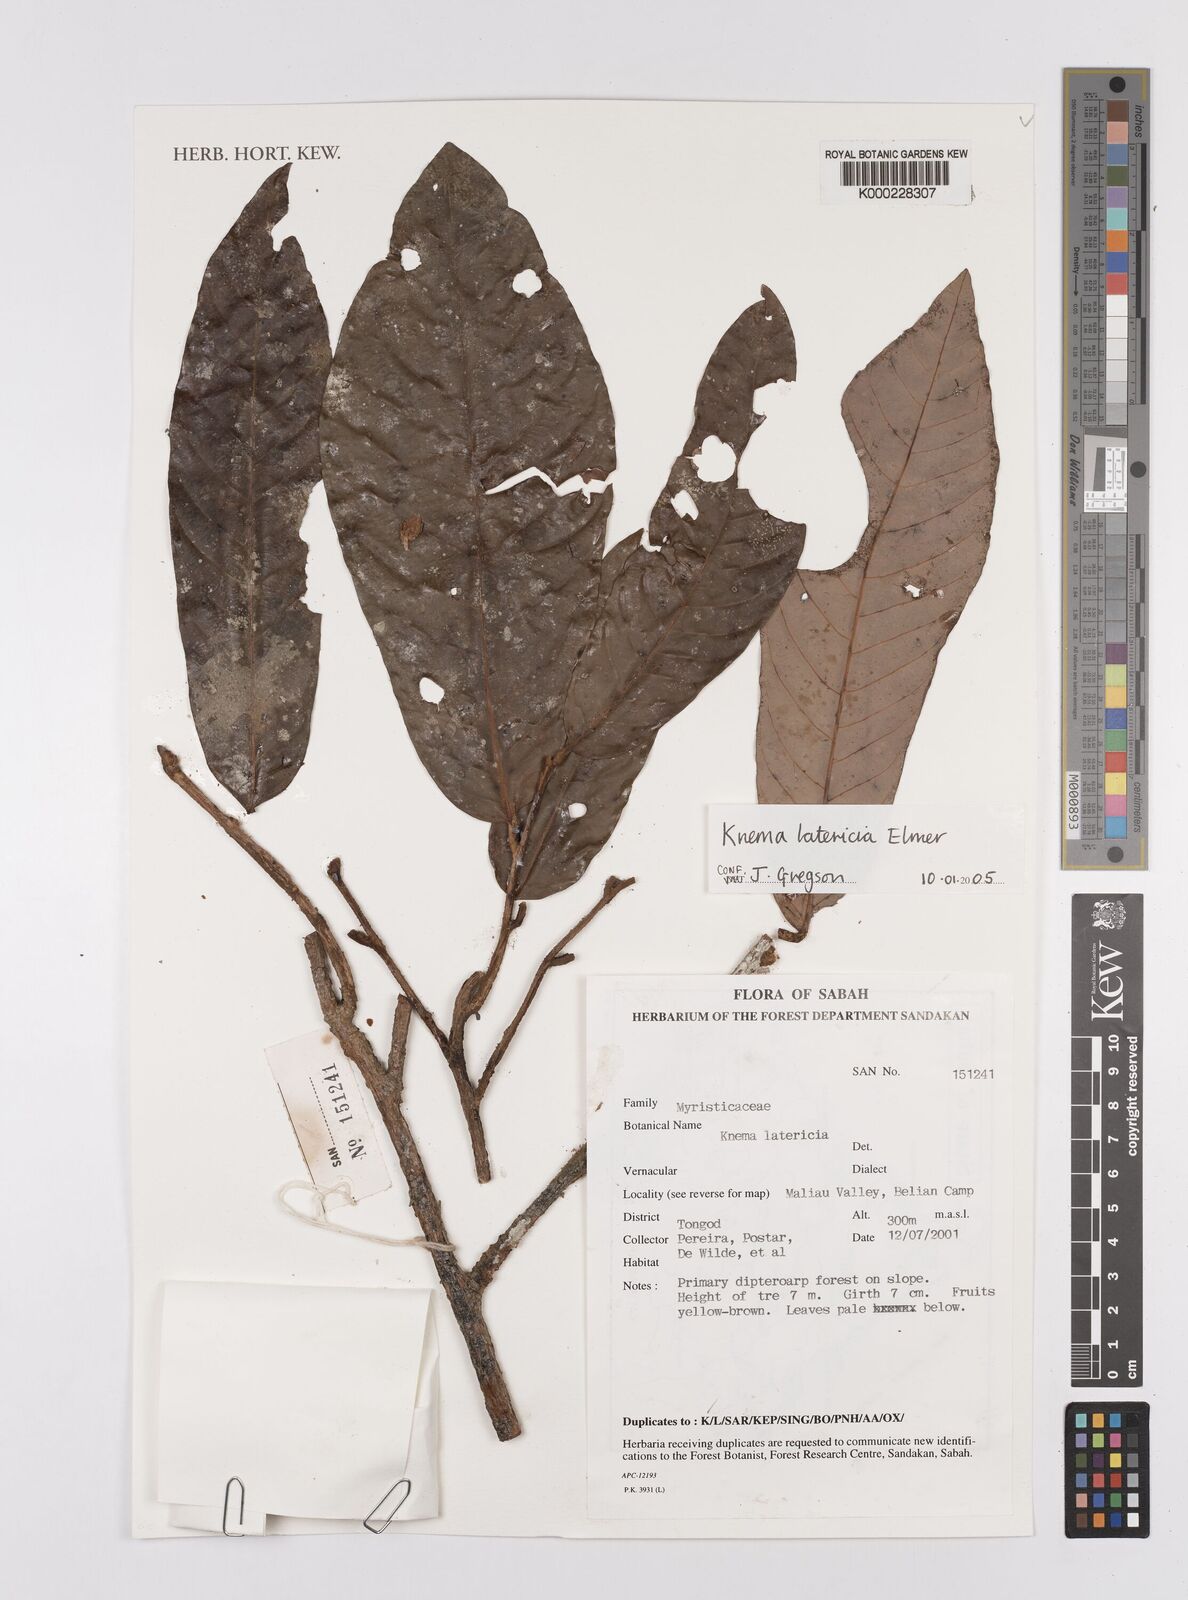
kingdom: Plantae
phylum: Tracheophyta
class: Magnoliopsida
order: Magnoliales
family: Myristicaceae
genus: Knema
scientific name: Knema latericia
